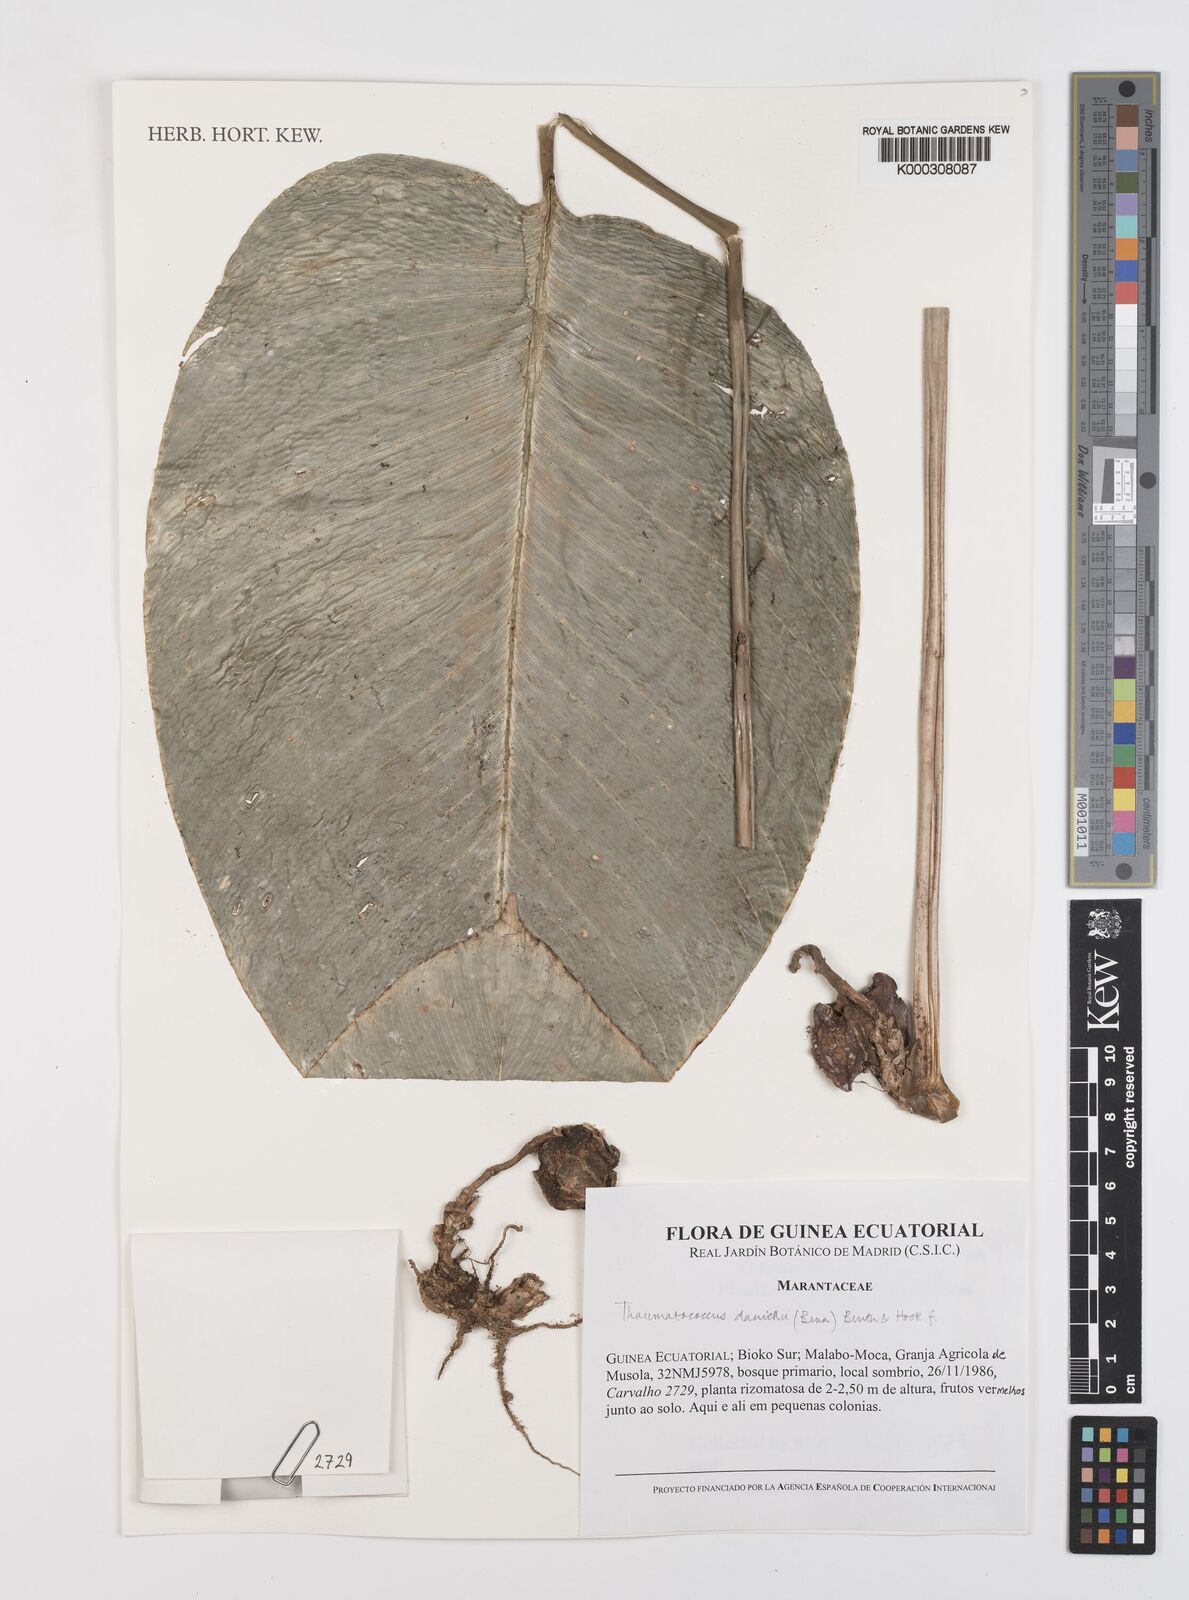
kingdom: Plantae
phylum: Tracheophyta
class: Liliopsida
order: Zingiberales
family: Marantaceae
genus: Thaumatococcus
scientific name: Thaumatococcus
